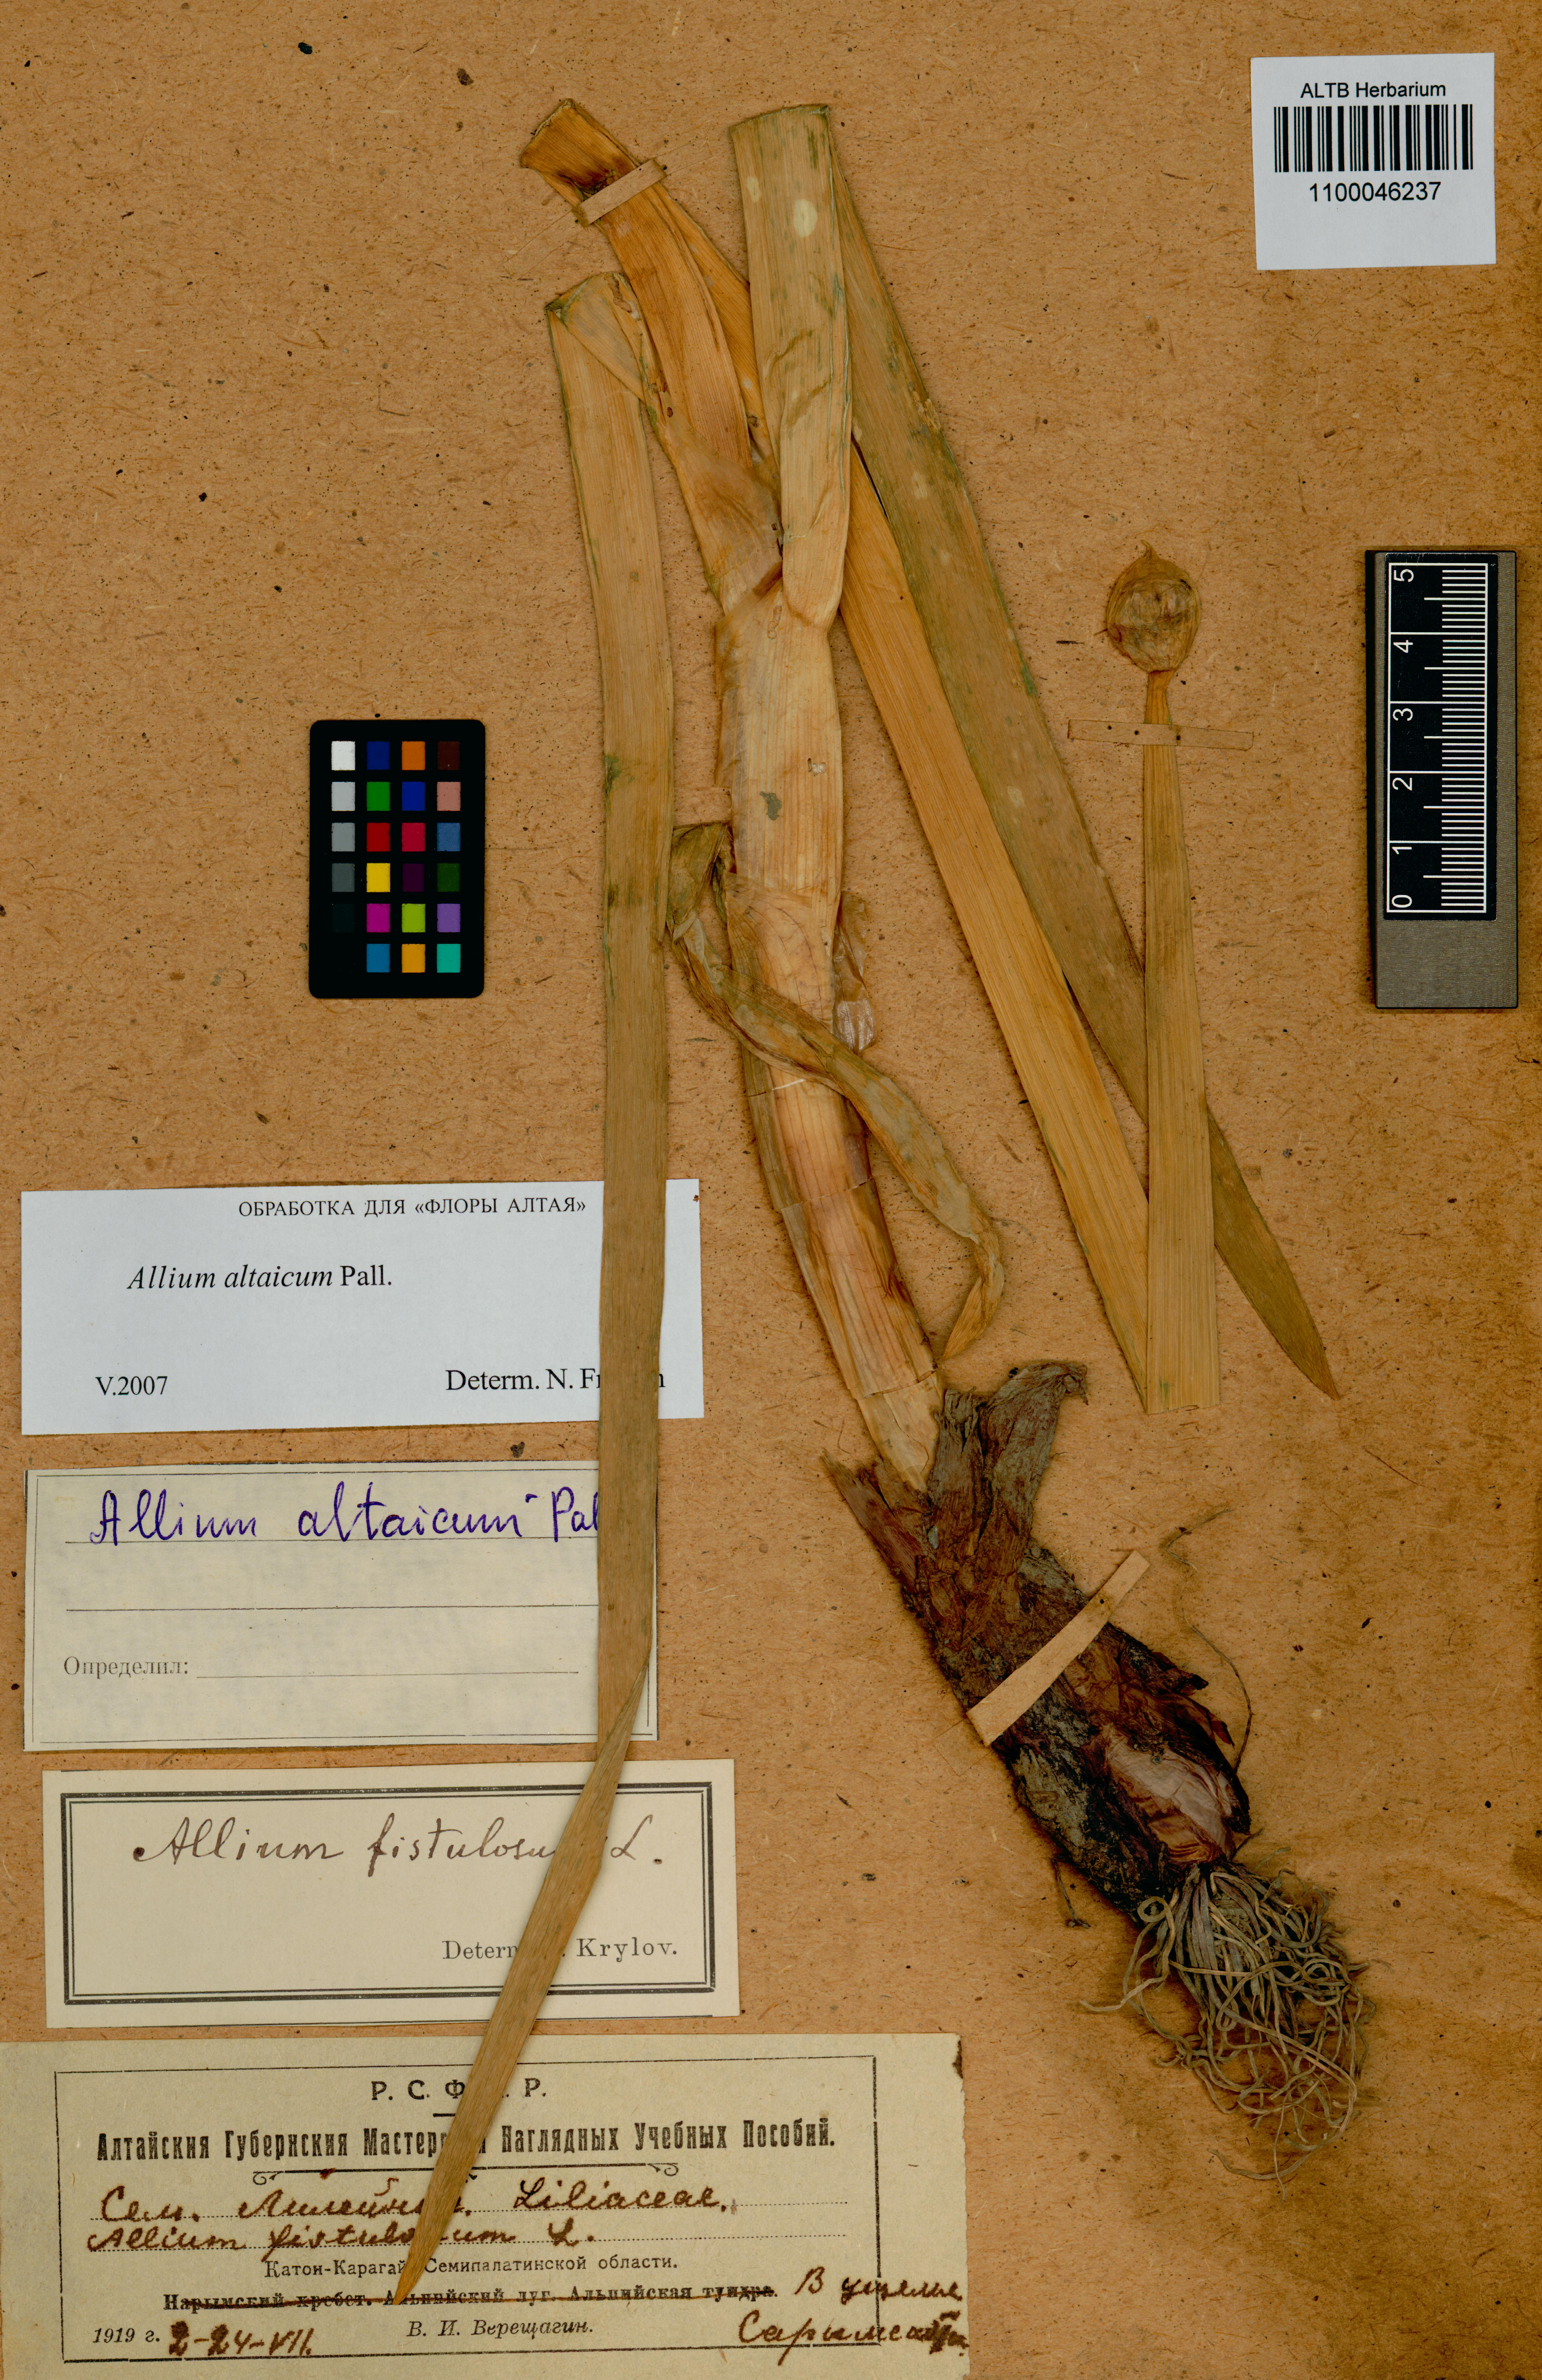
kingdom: Plantae
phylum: Tracheophyta
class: Liliopsida
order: Asparagales
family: Amaryllidaceae
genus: Allium
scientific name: Allium altaicum
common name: Altai onion
